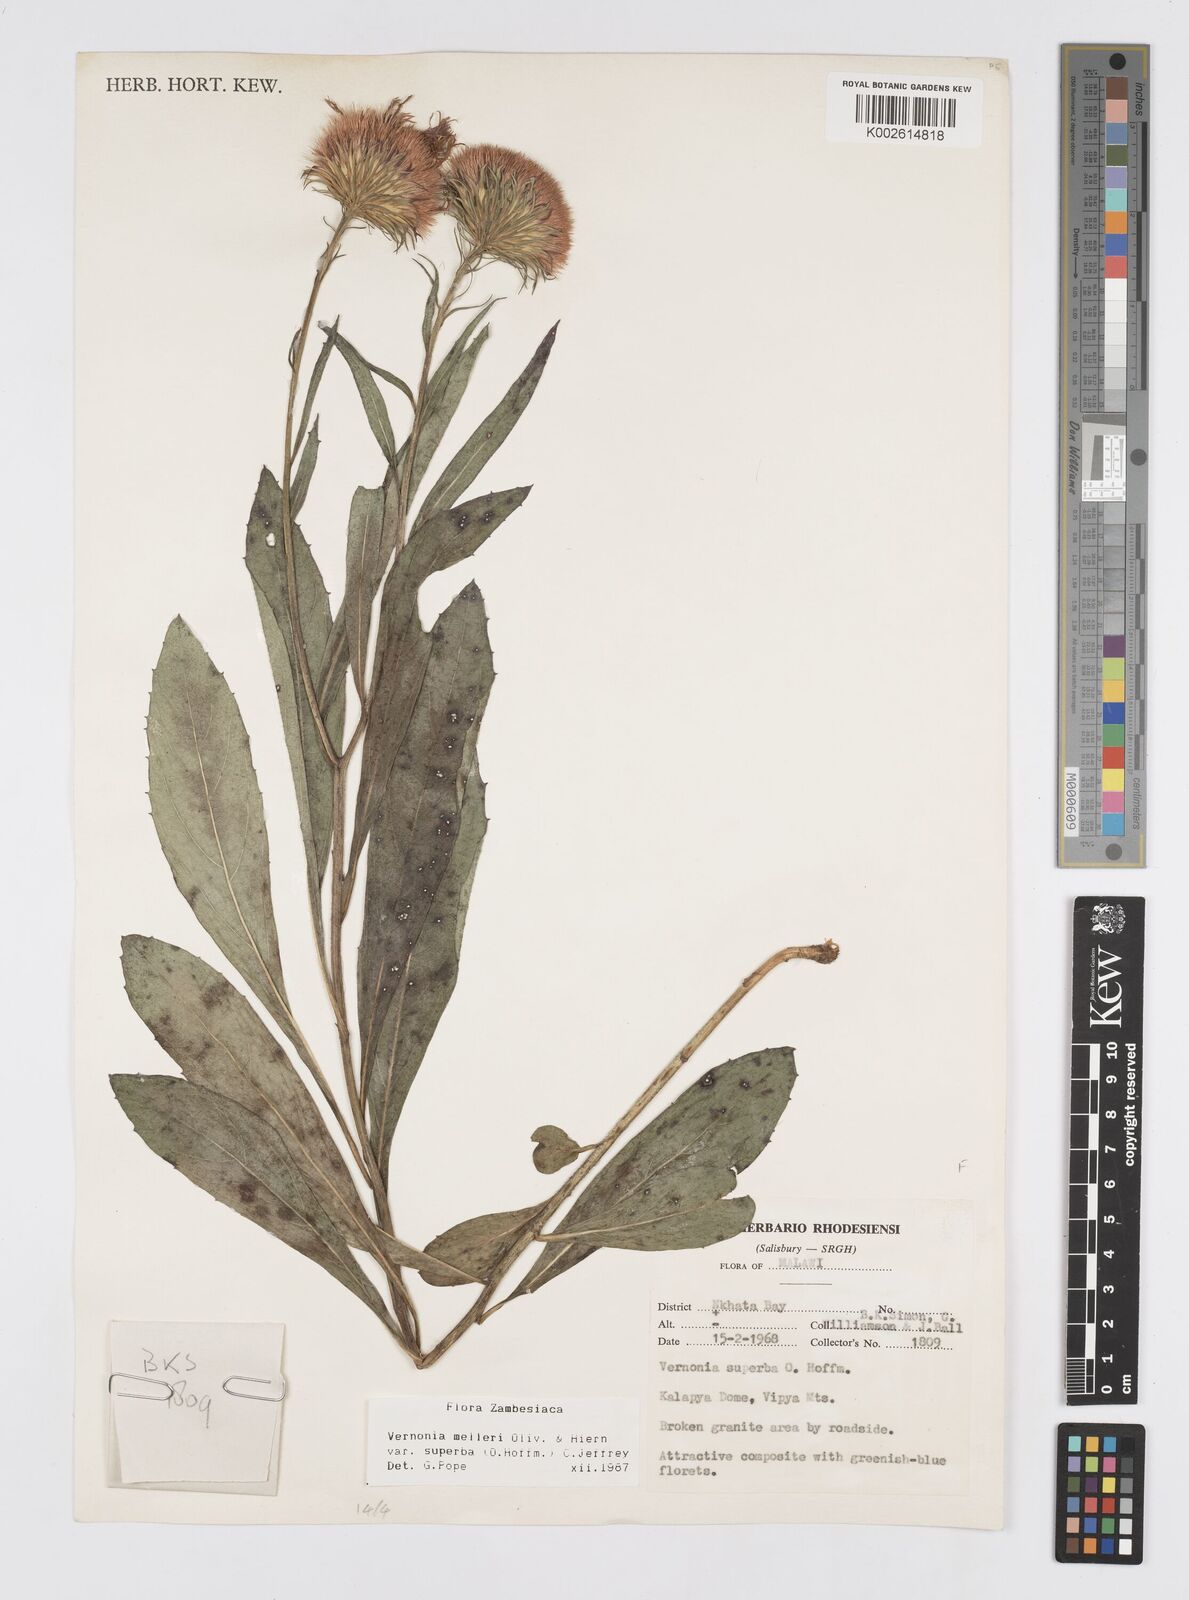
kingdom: Plantae
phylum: Tracheophyta
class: Magnoliopsida
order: Asterales
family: Asteraceae
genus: Linzia
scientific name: Linzia melleri
